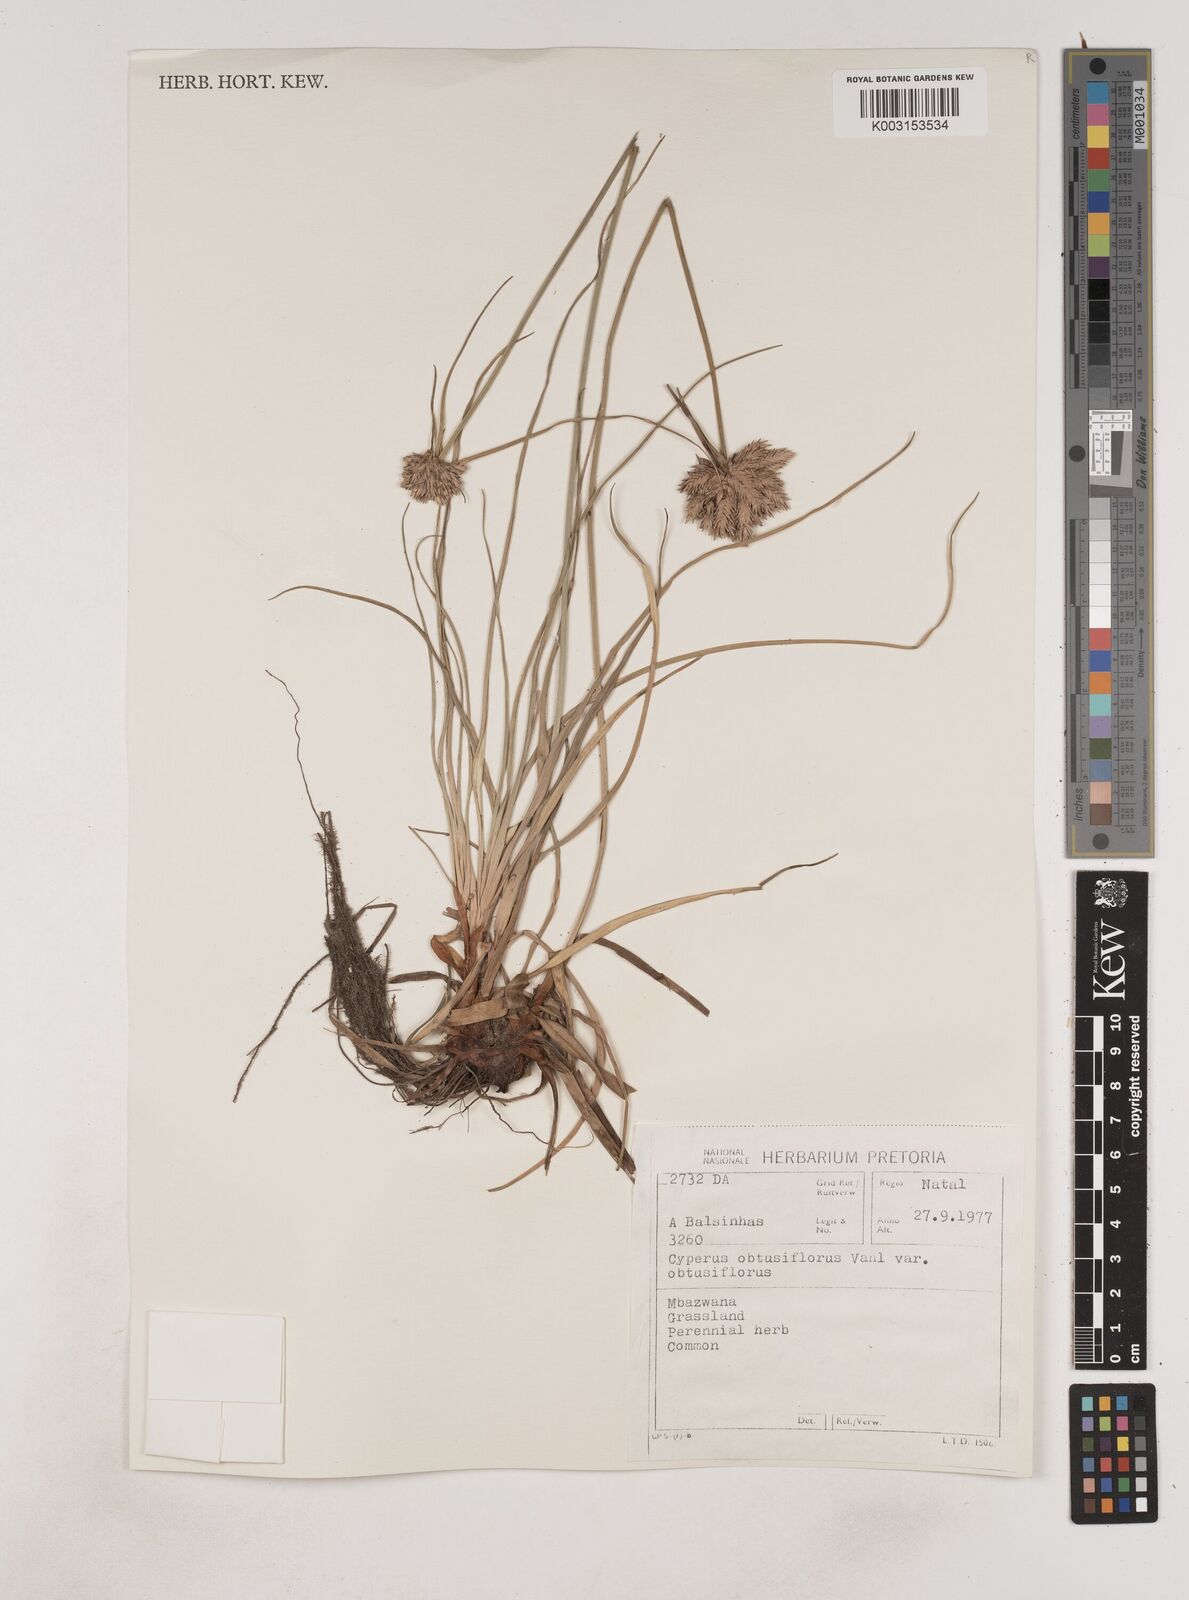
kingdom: Plantae
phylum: Tracheophyta
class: Liliopsida
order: Poales
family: Cyperaceae
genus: Cyperus
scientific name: Cyperus niveus
